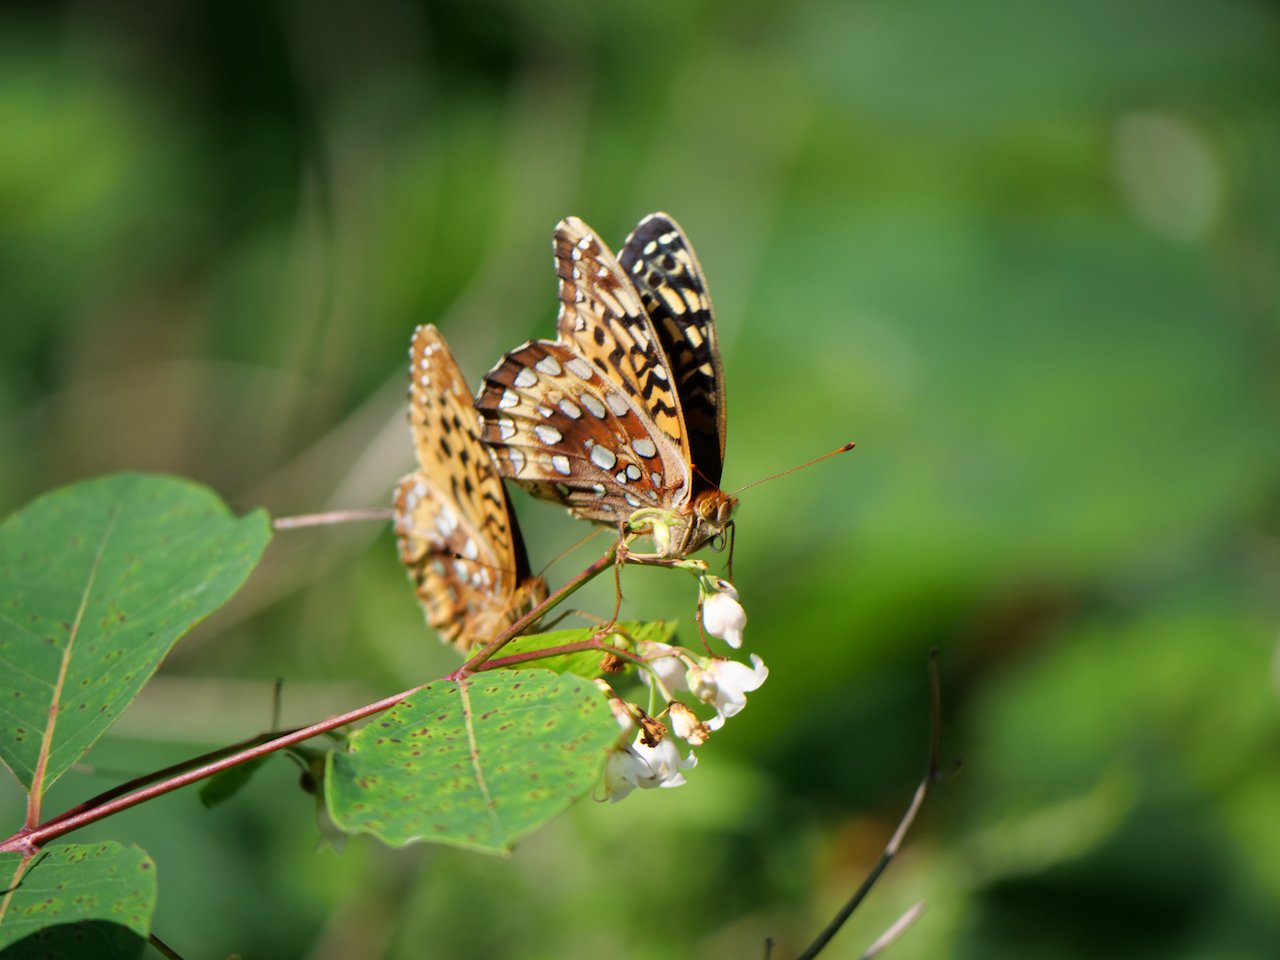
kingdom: Animalia
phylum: Arthropoda
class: Insecta
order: Lepidoptera
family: Nymphalidae
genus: Speyeria
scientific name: Speyeria cybele
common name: Great Spangled Fritillary
